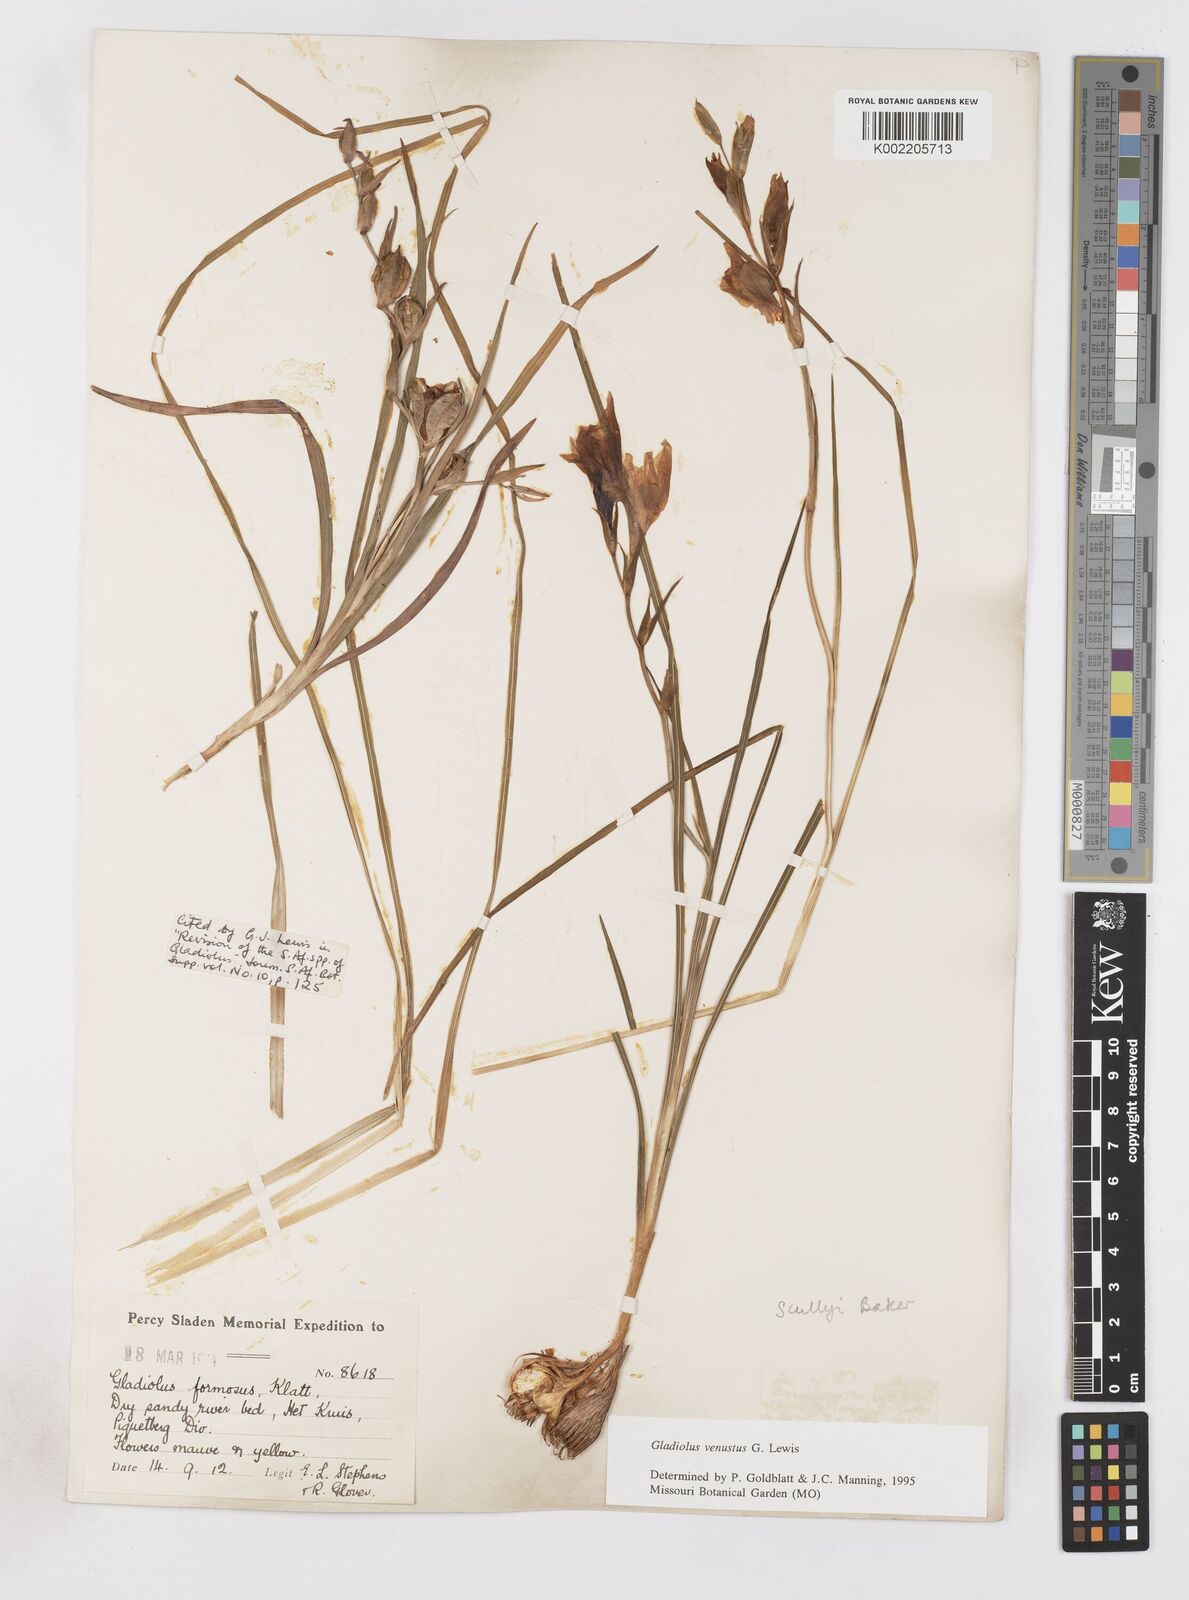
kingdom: Plantae
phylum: Tracheophyta
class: Liliopsida
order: Asparagales
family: Iridaceae
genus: Gladiolus
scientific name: Gladiolus venustus
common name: Purple kalkoentjie
